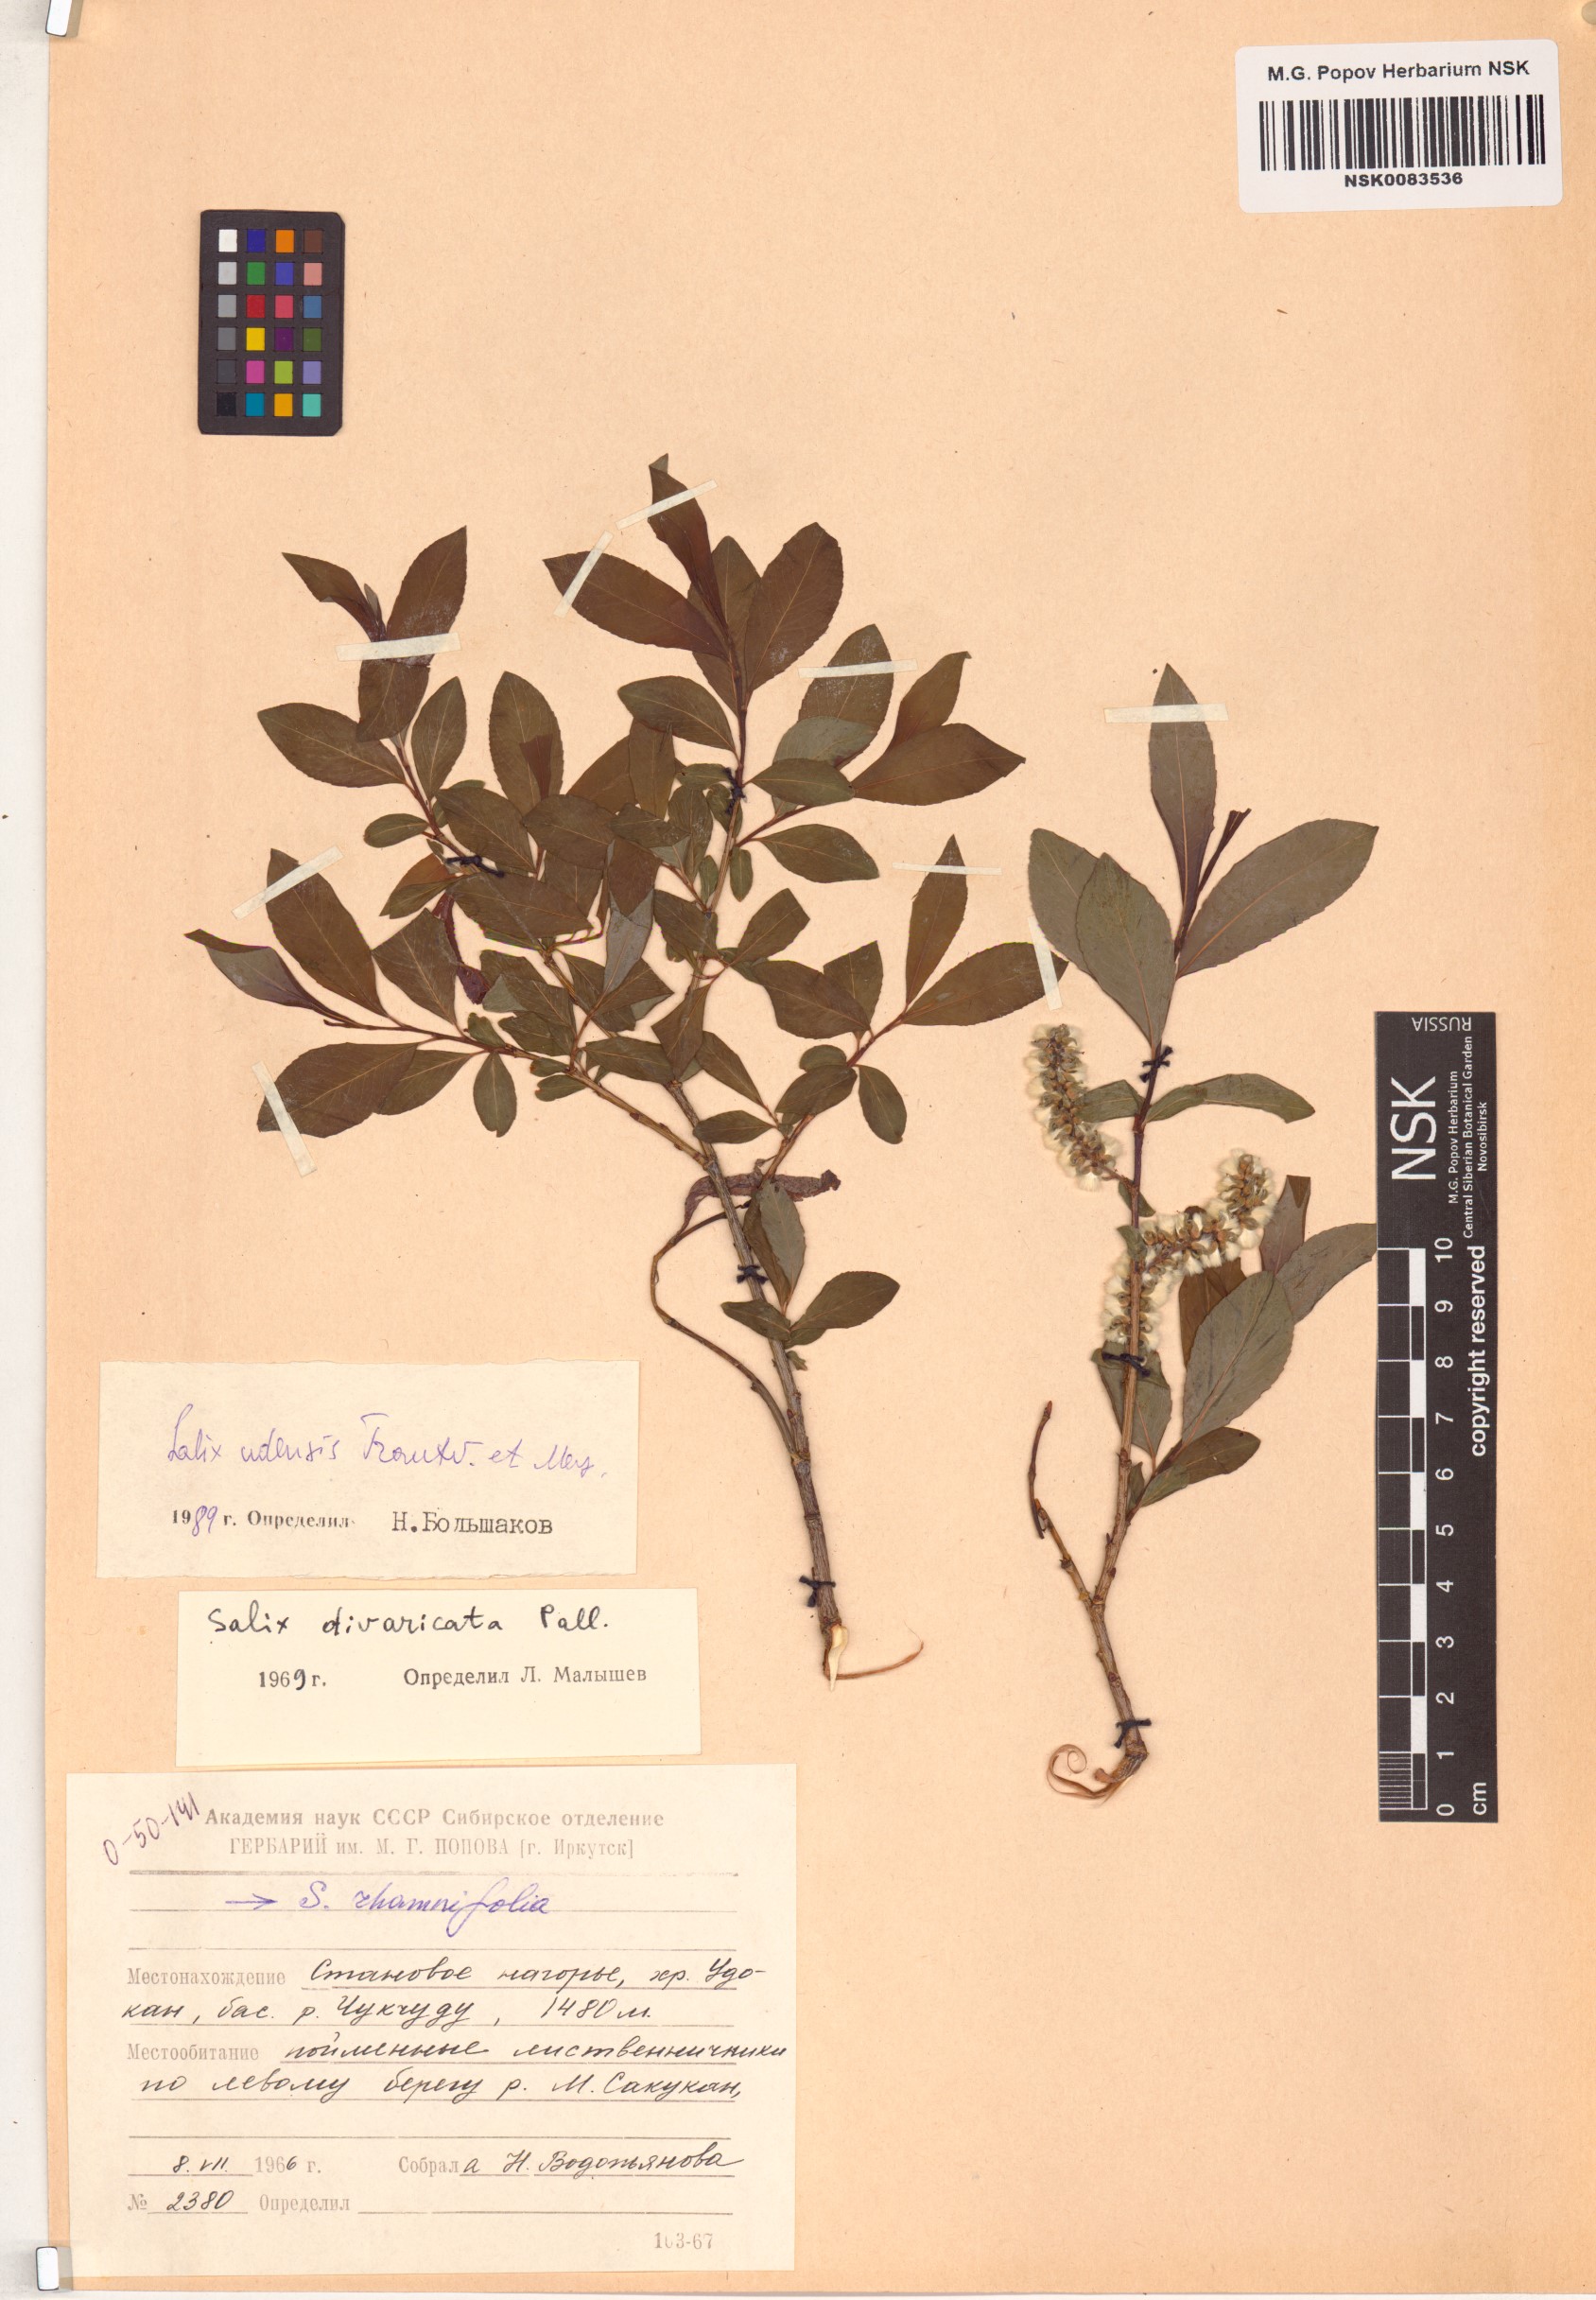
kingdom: Plantae
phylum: Tracheophyta
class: Magnoliopsida
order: Malpighiales
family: Salicaceae
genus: Salix
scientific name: Salix udensis
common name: Sachalin willow
